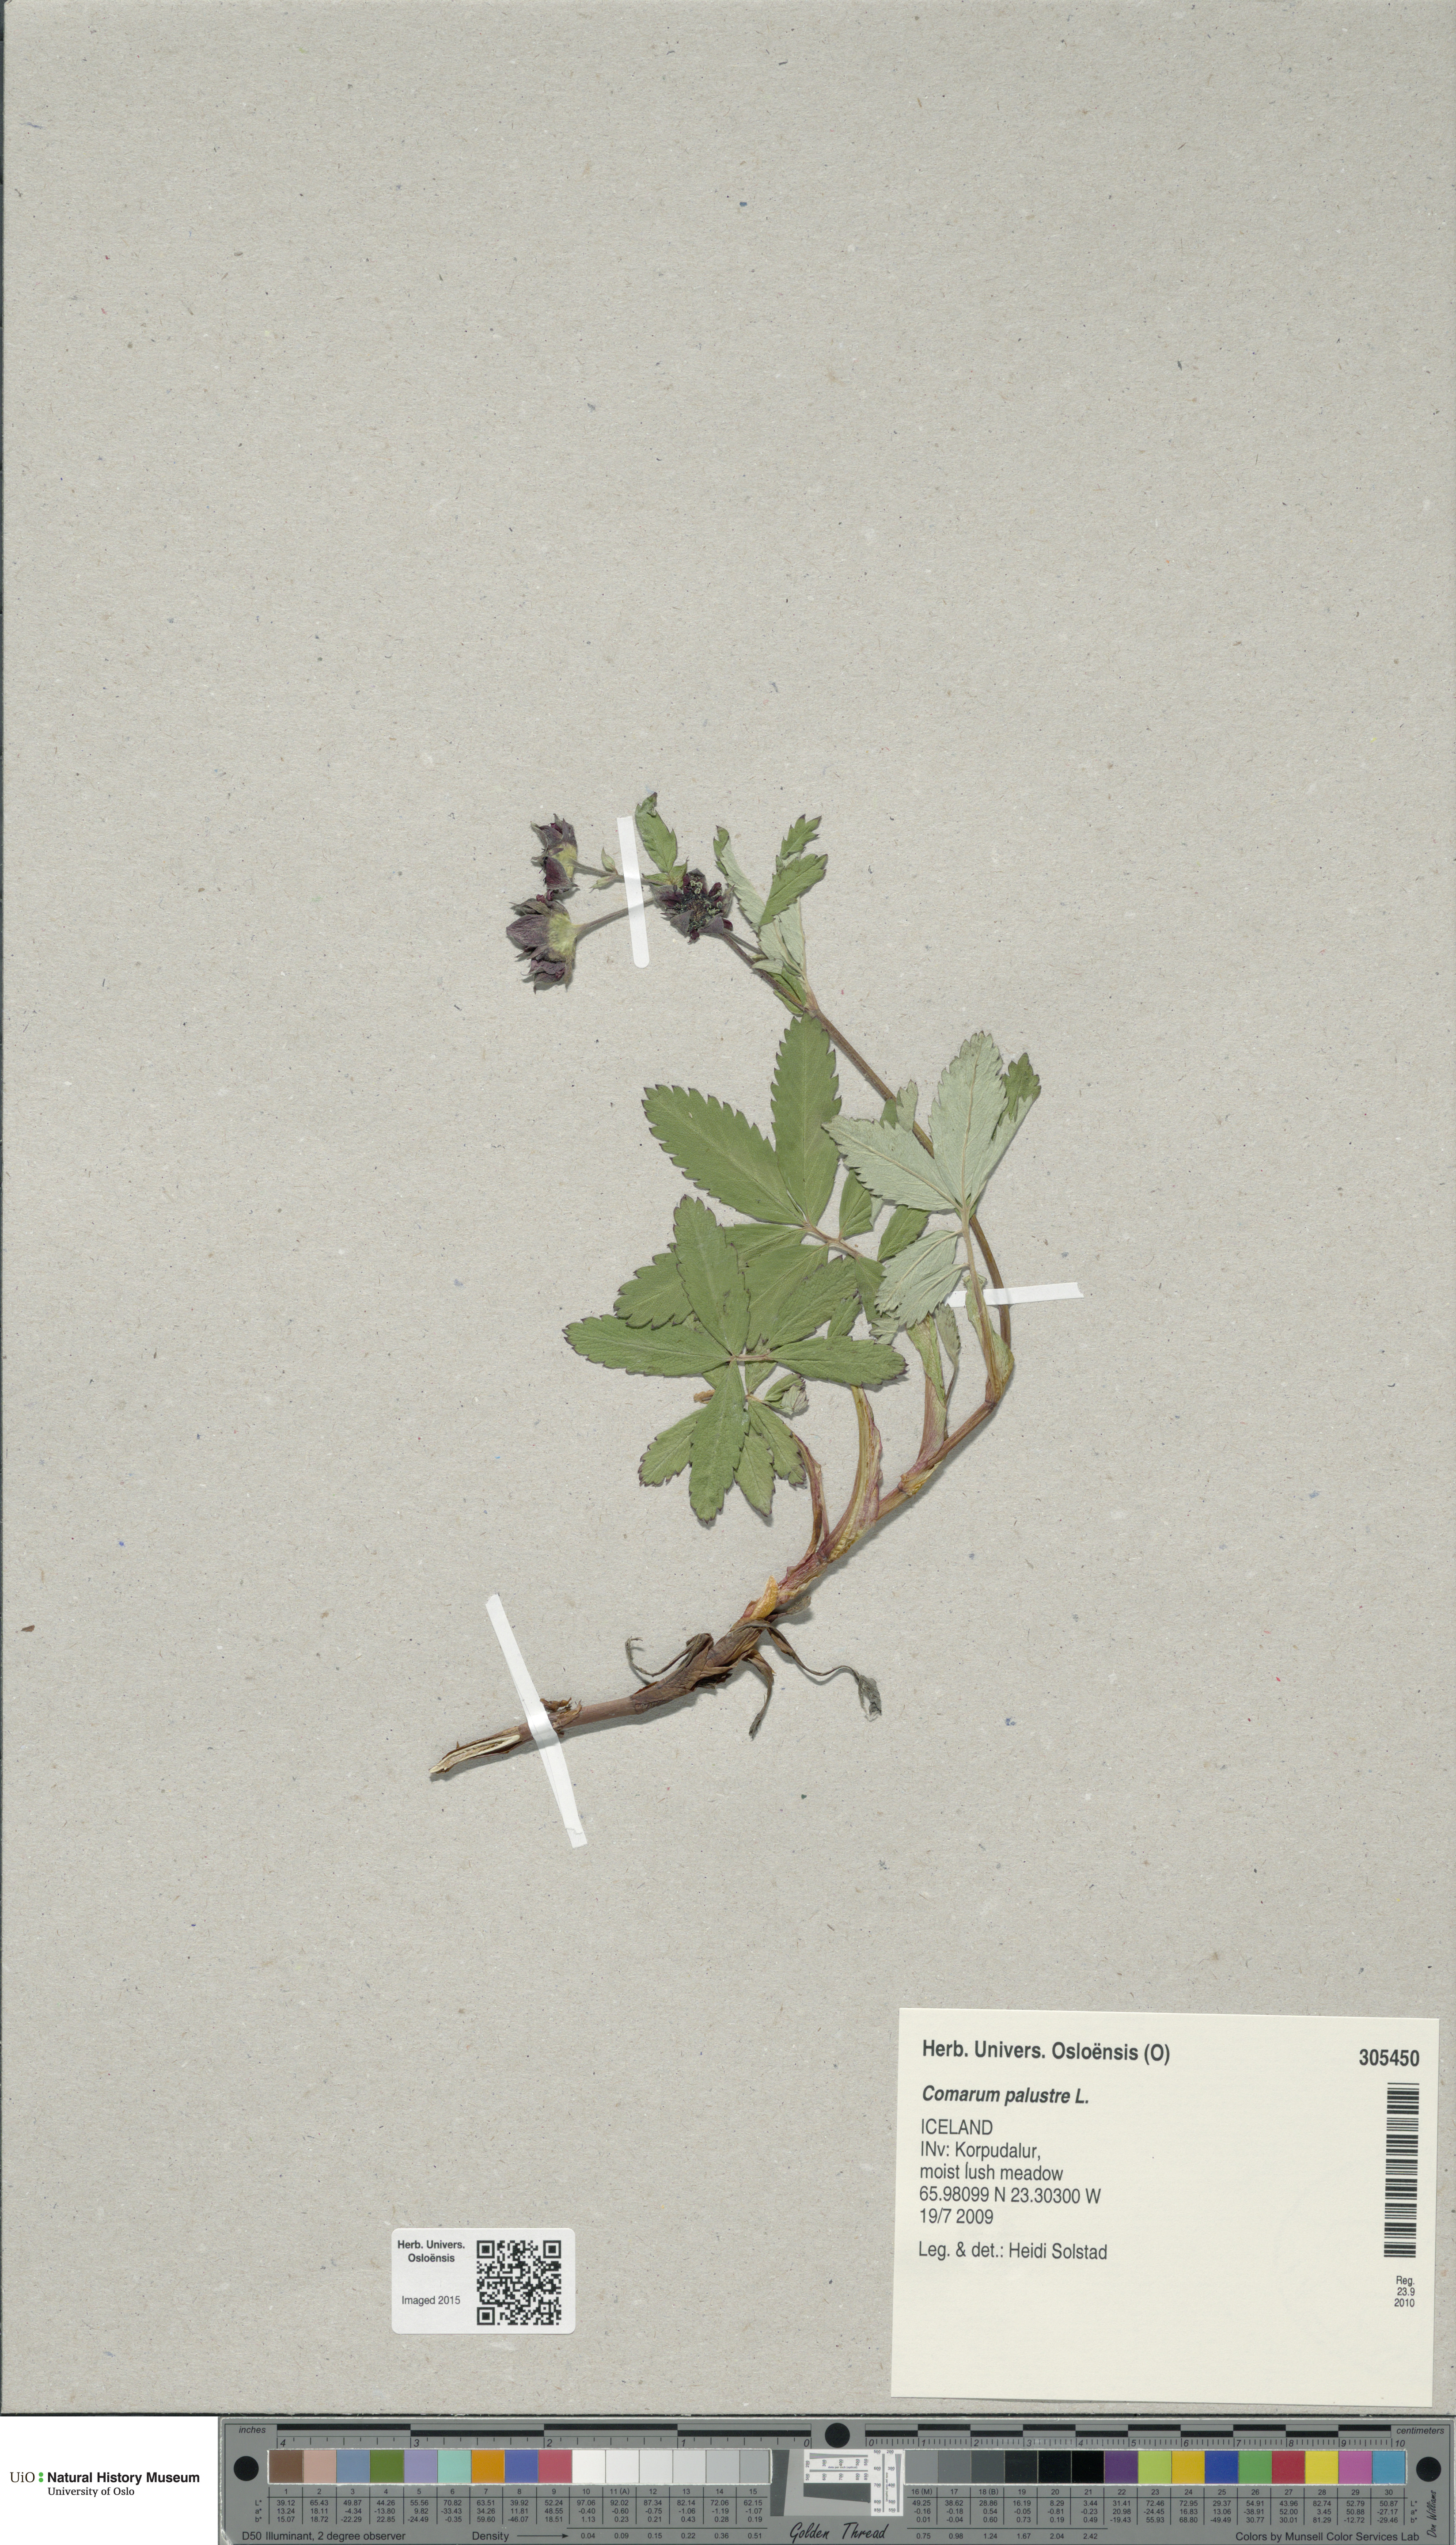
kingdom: Plantae
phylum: Tracheophyta
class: Magnoliopsida
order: Rosales
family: Rosaceae
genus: Comarum
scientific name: Comarum palustre
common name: Marsh cinquefoil
